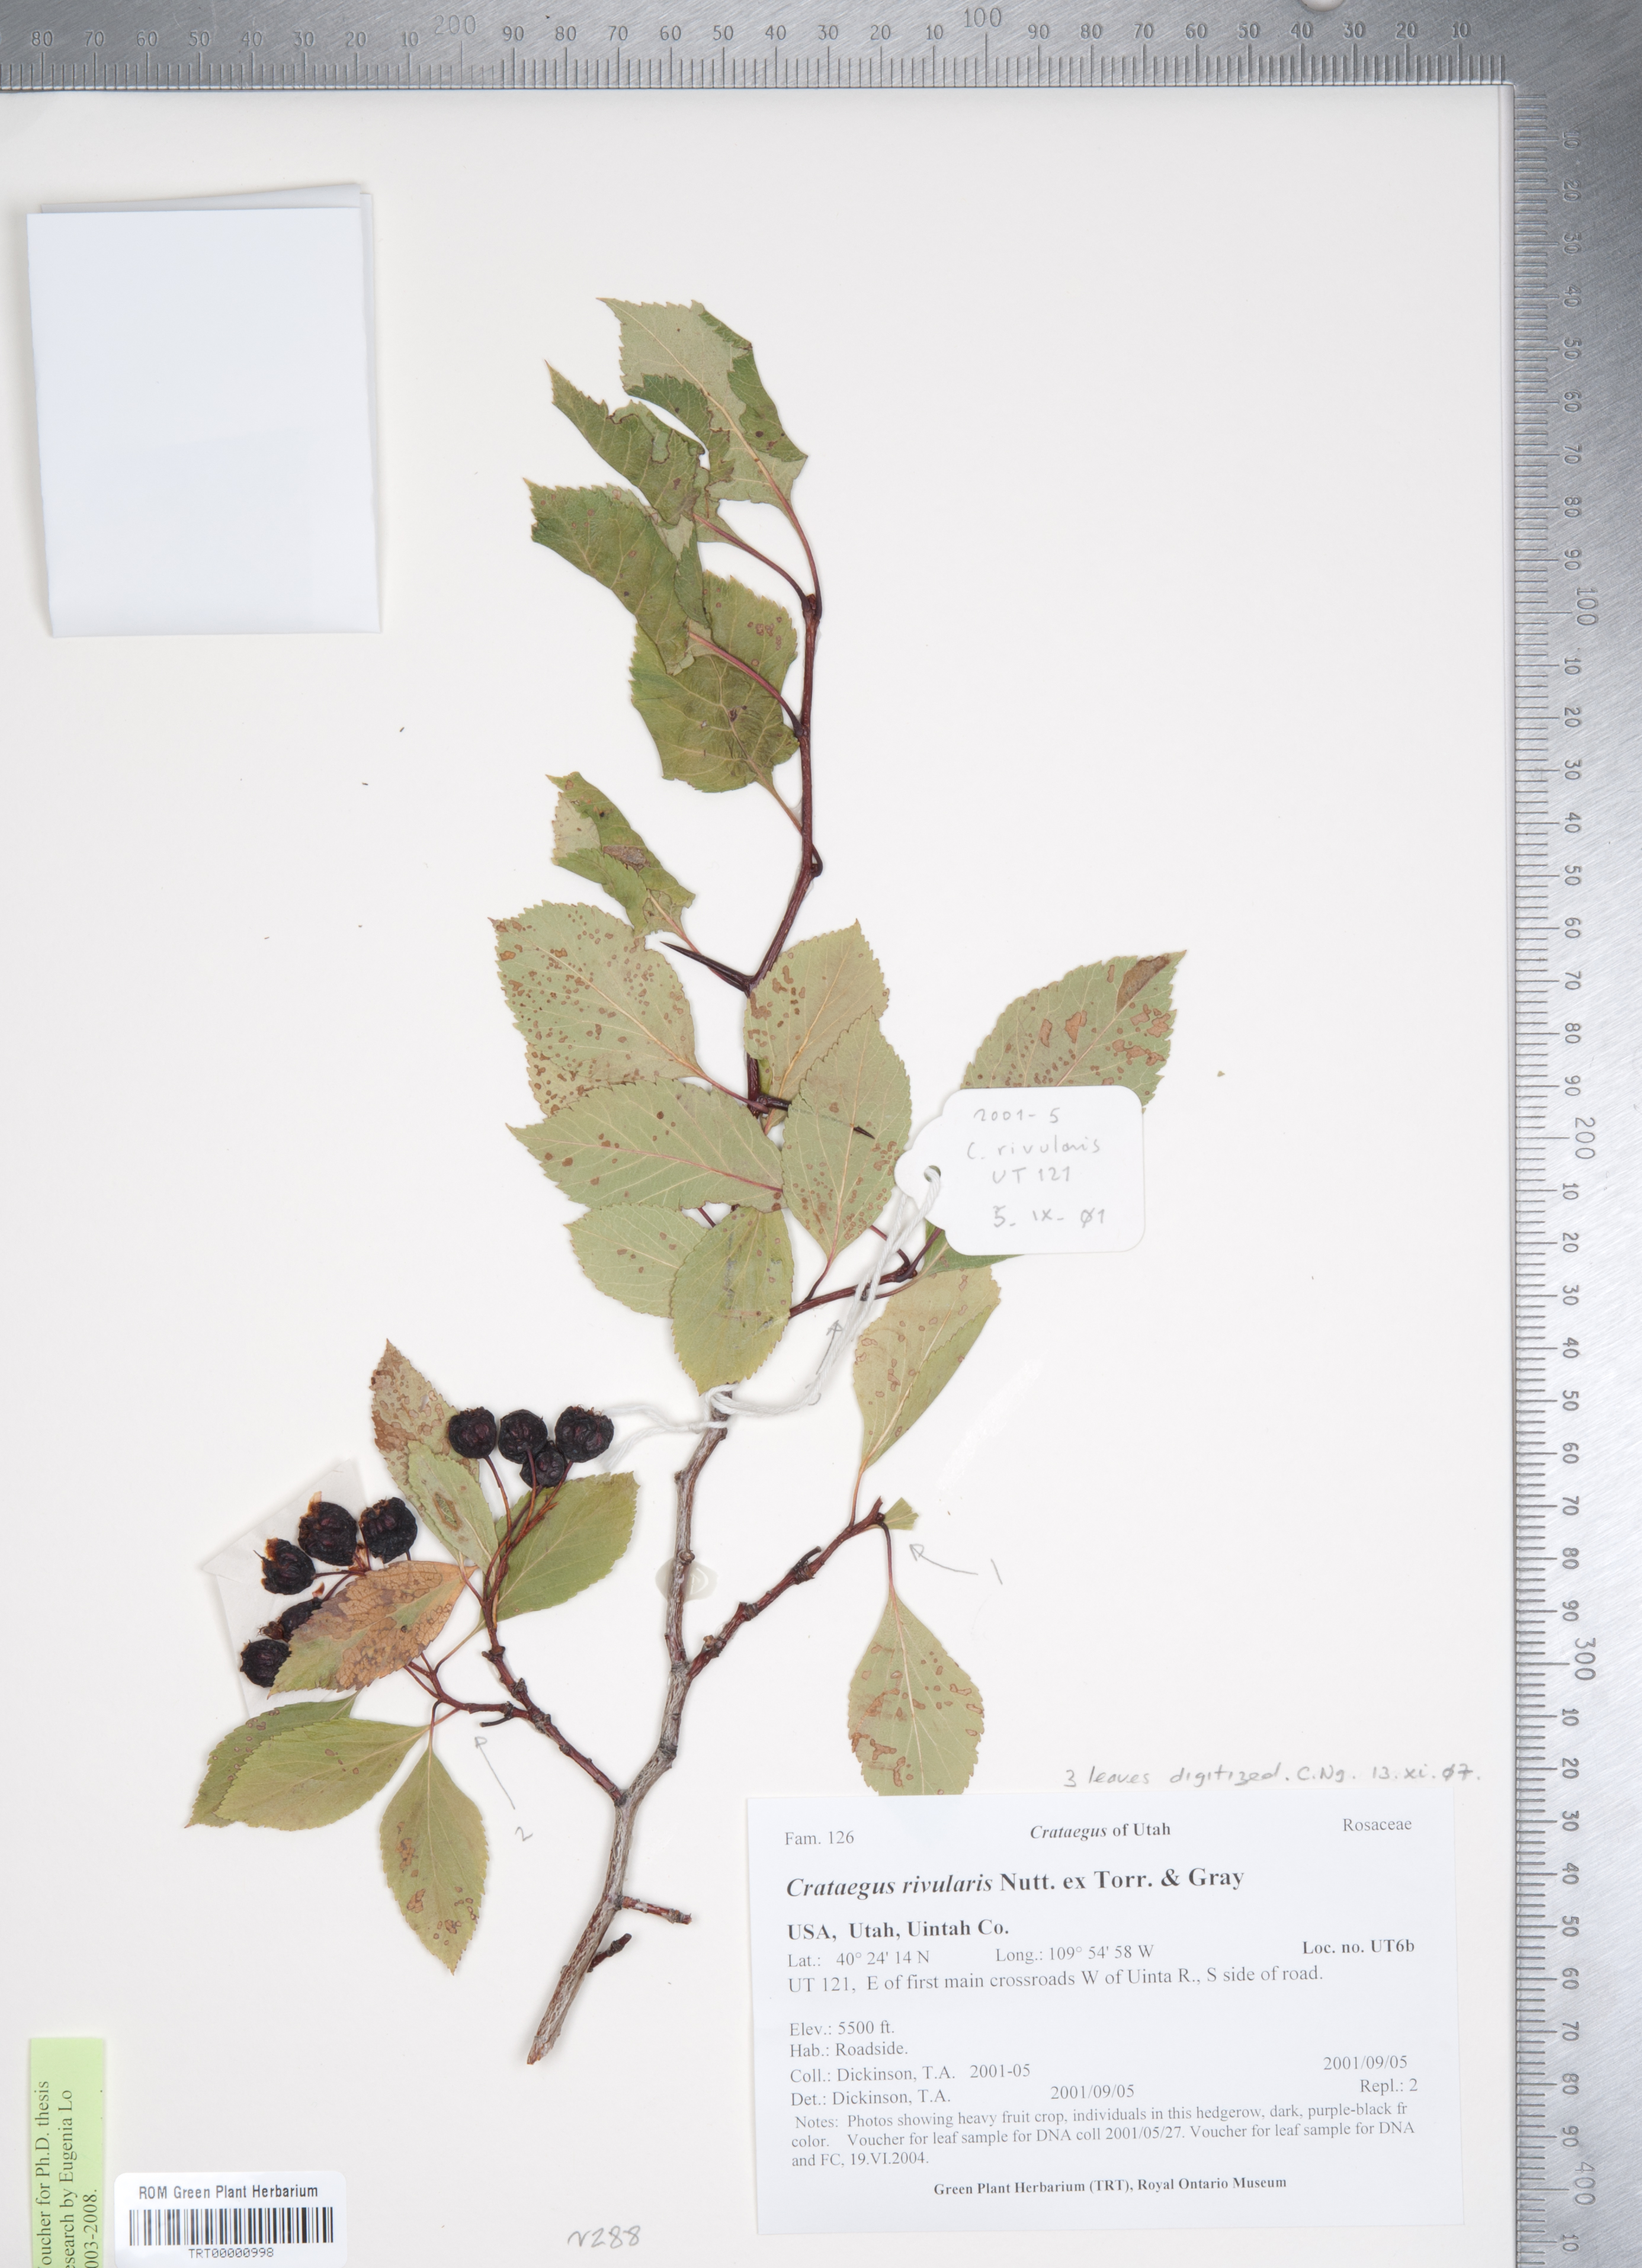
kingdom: Plantae
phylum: Tracheophyta
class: Magnoliopsida
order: Rosales
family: Rosaceae
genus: Crataegus
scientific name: Crataegus rivularis
